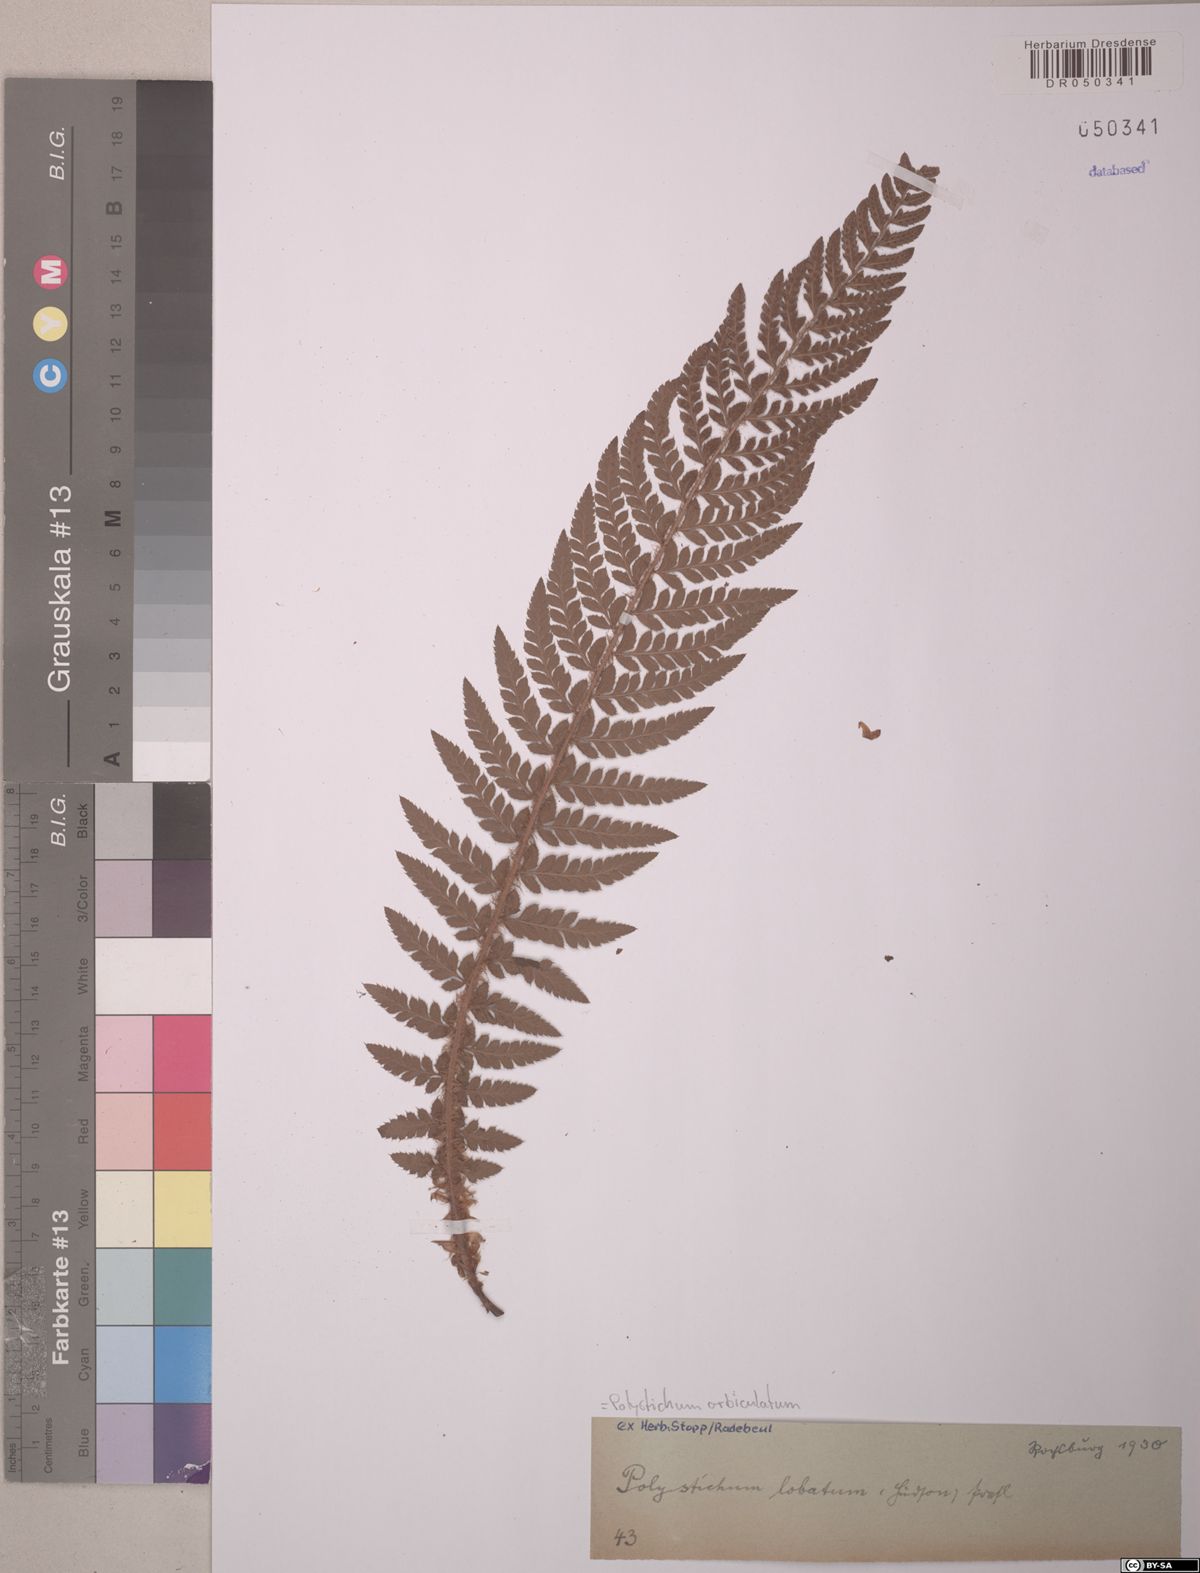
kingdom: Plantae
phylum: Tracheophyta
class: Polypodiopsida
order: Polypodiales
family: Dryopteridaceae
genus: Polystichum
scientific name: Polystichum aculeatum
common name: Hard shield-fern
